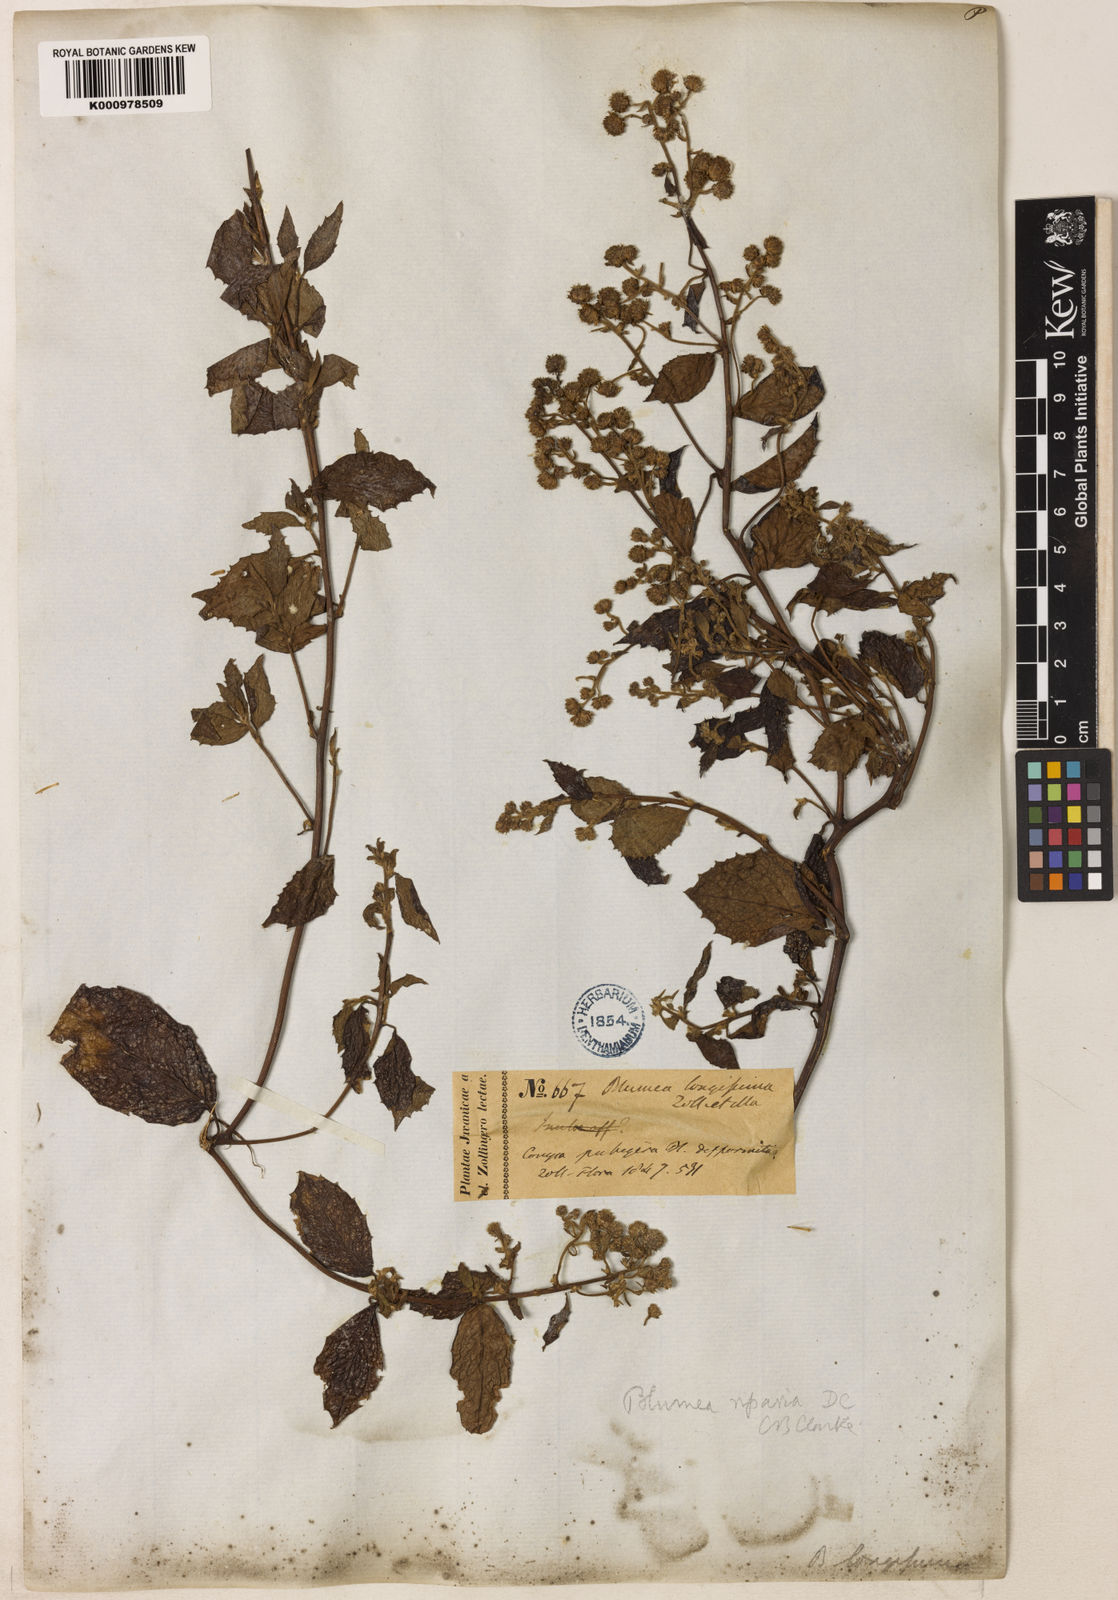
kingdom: Plantae
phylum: Tracheophyta
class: Magnoliopsida
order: Asterales
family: Asteraceae
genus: Blumea
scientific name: Blumea riparia
